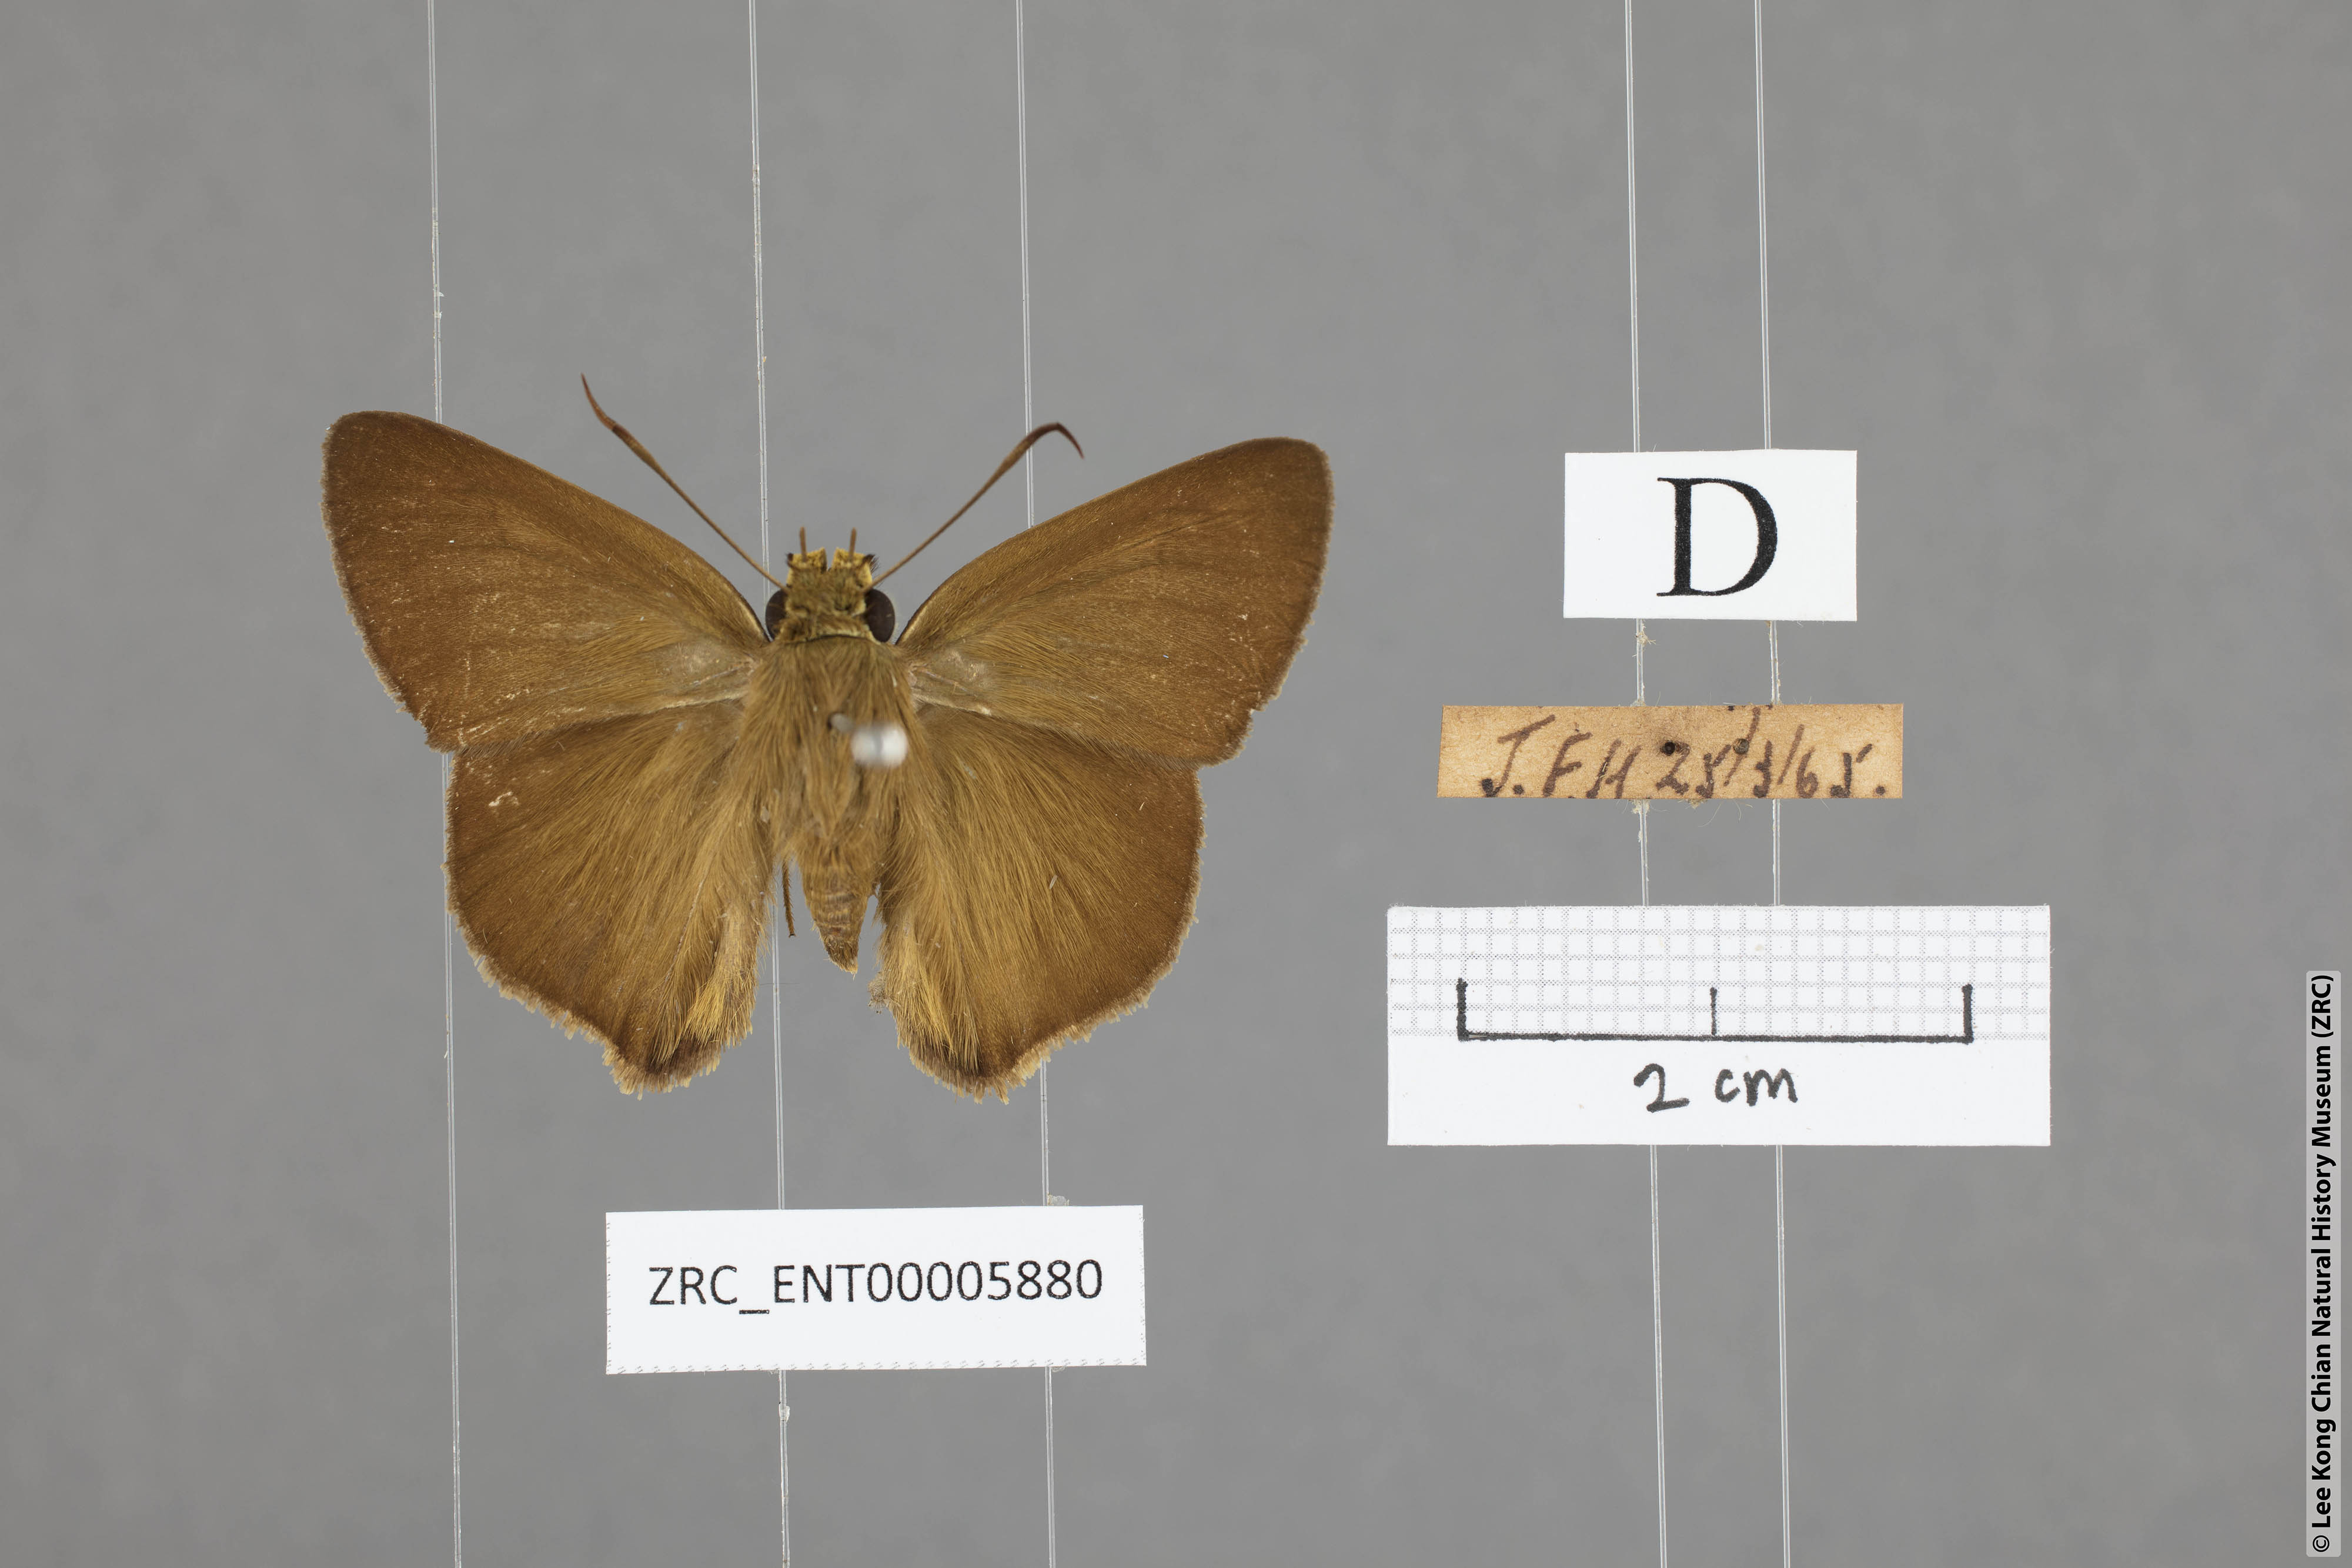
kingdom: Animalia
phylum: Arthropoda
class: Insecta
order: Lepidoptera
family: Hesperiidae
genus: Hasora
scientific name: Hasora mus
